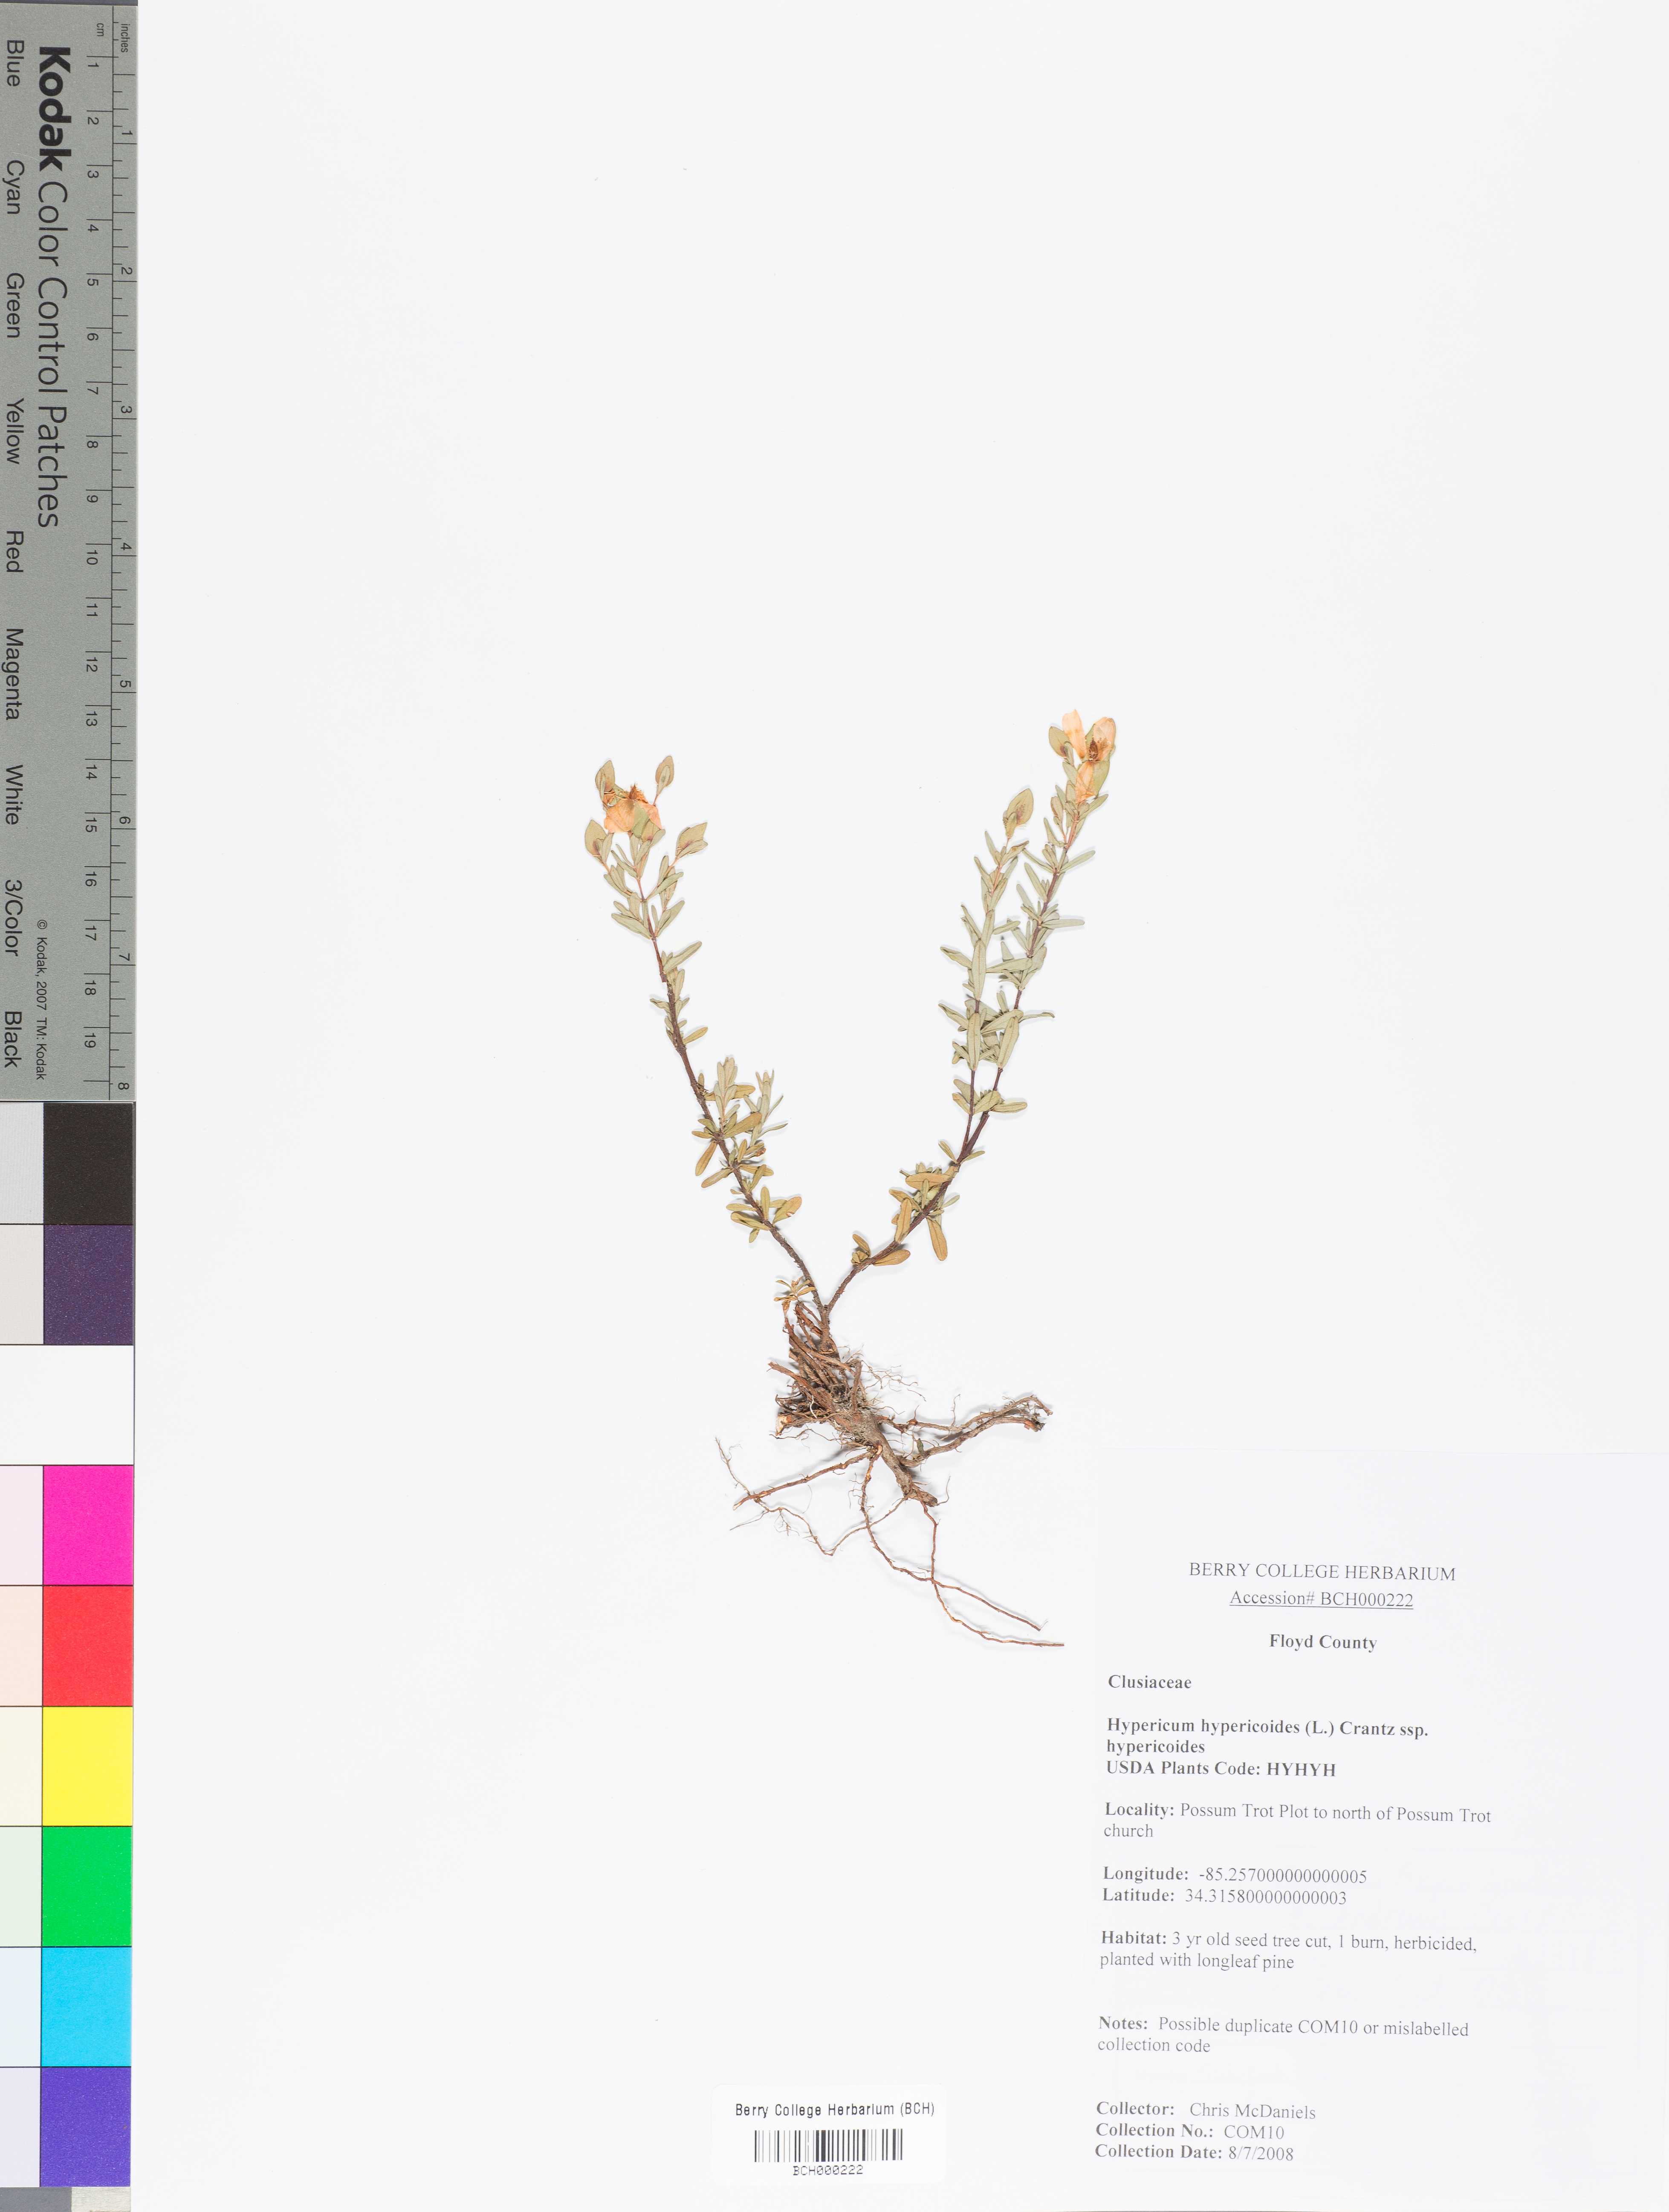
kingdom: Plantae
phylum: Tracheophyta
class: Magnoliopsida
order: Malpighiales
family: Hypericaceae
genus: Hypericum
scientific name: Hypericum hypericoides
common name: St. andrew's cross
